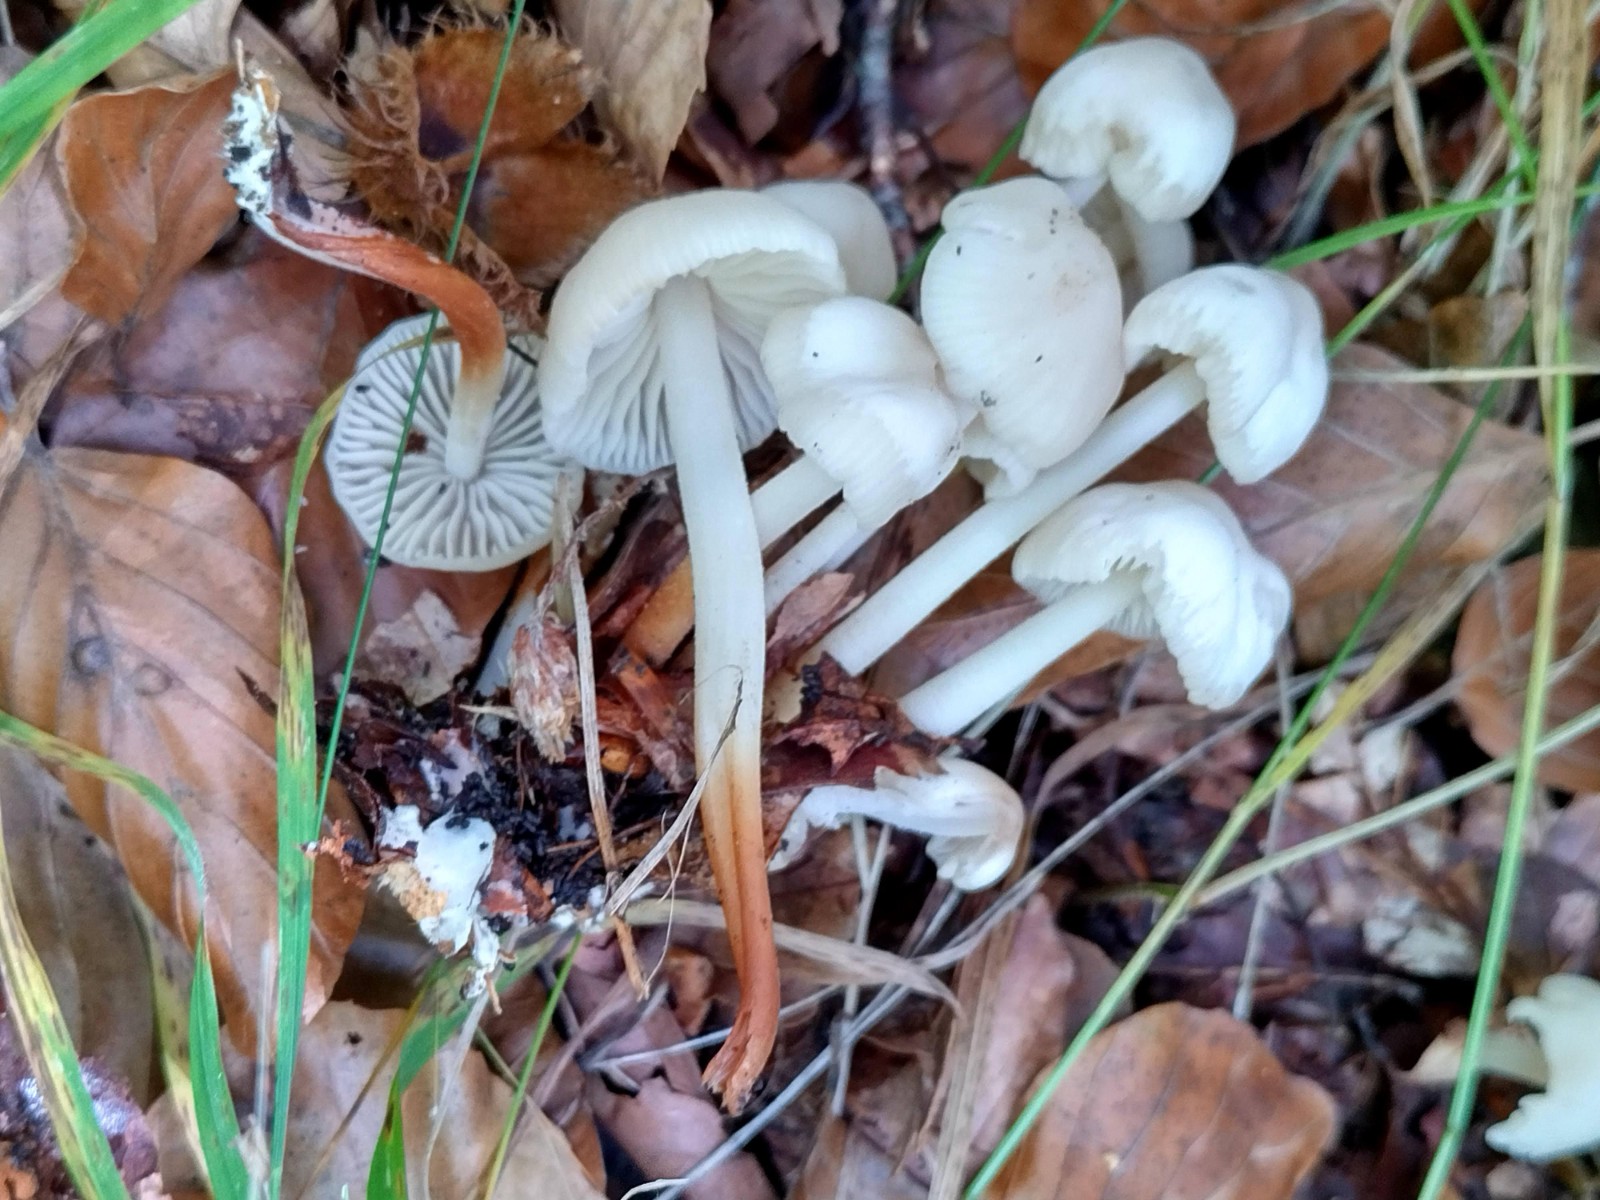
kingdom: Fungi
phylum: Basidiomycota
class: Agaricomycetes
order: Agaricales
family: Marasmiaceae
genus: Marasmius
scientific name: Marasmius wynneae
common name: hvælvet bruskhat
